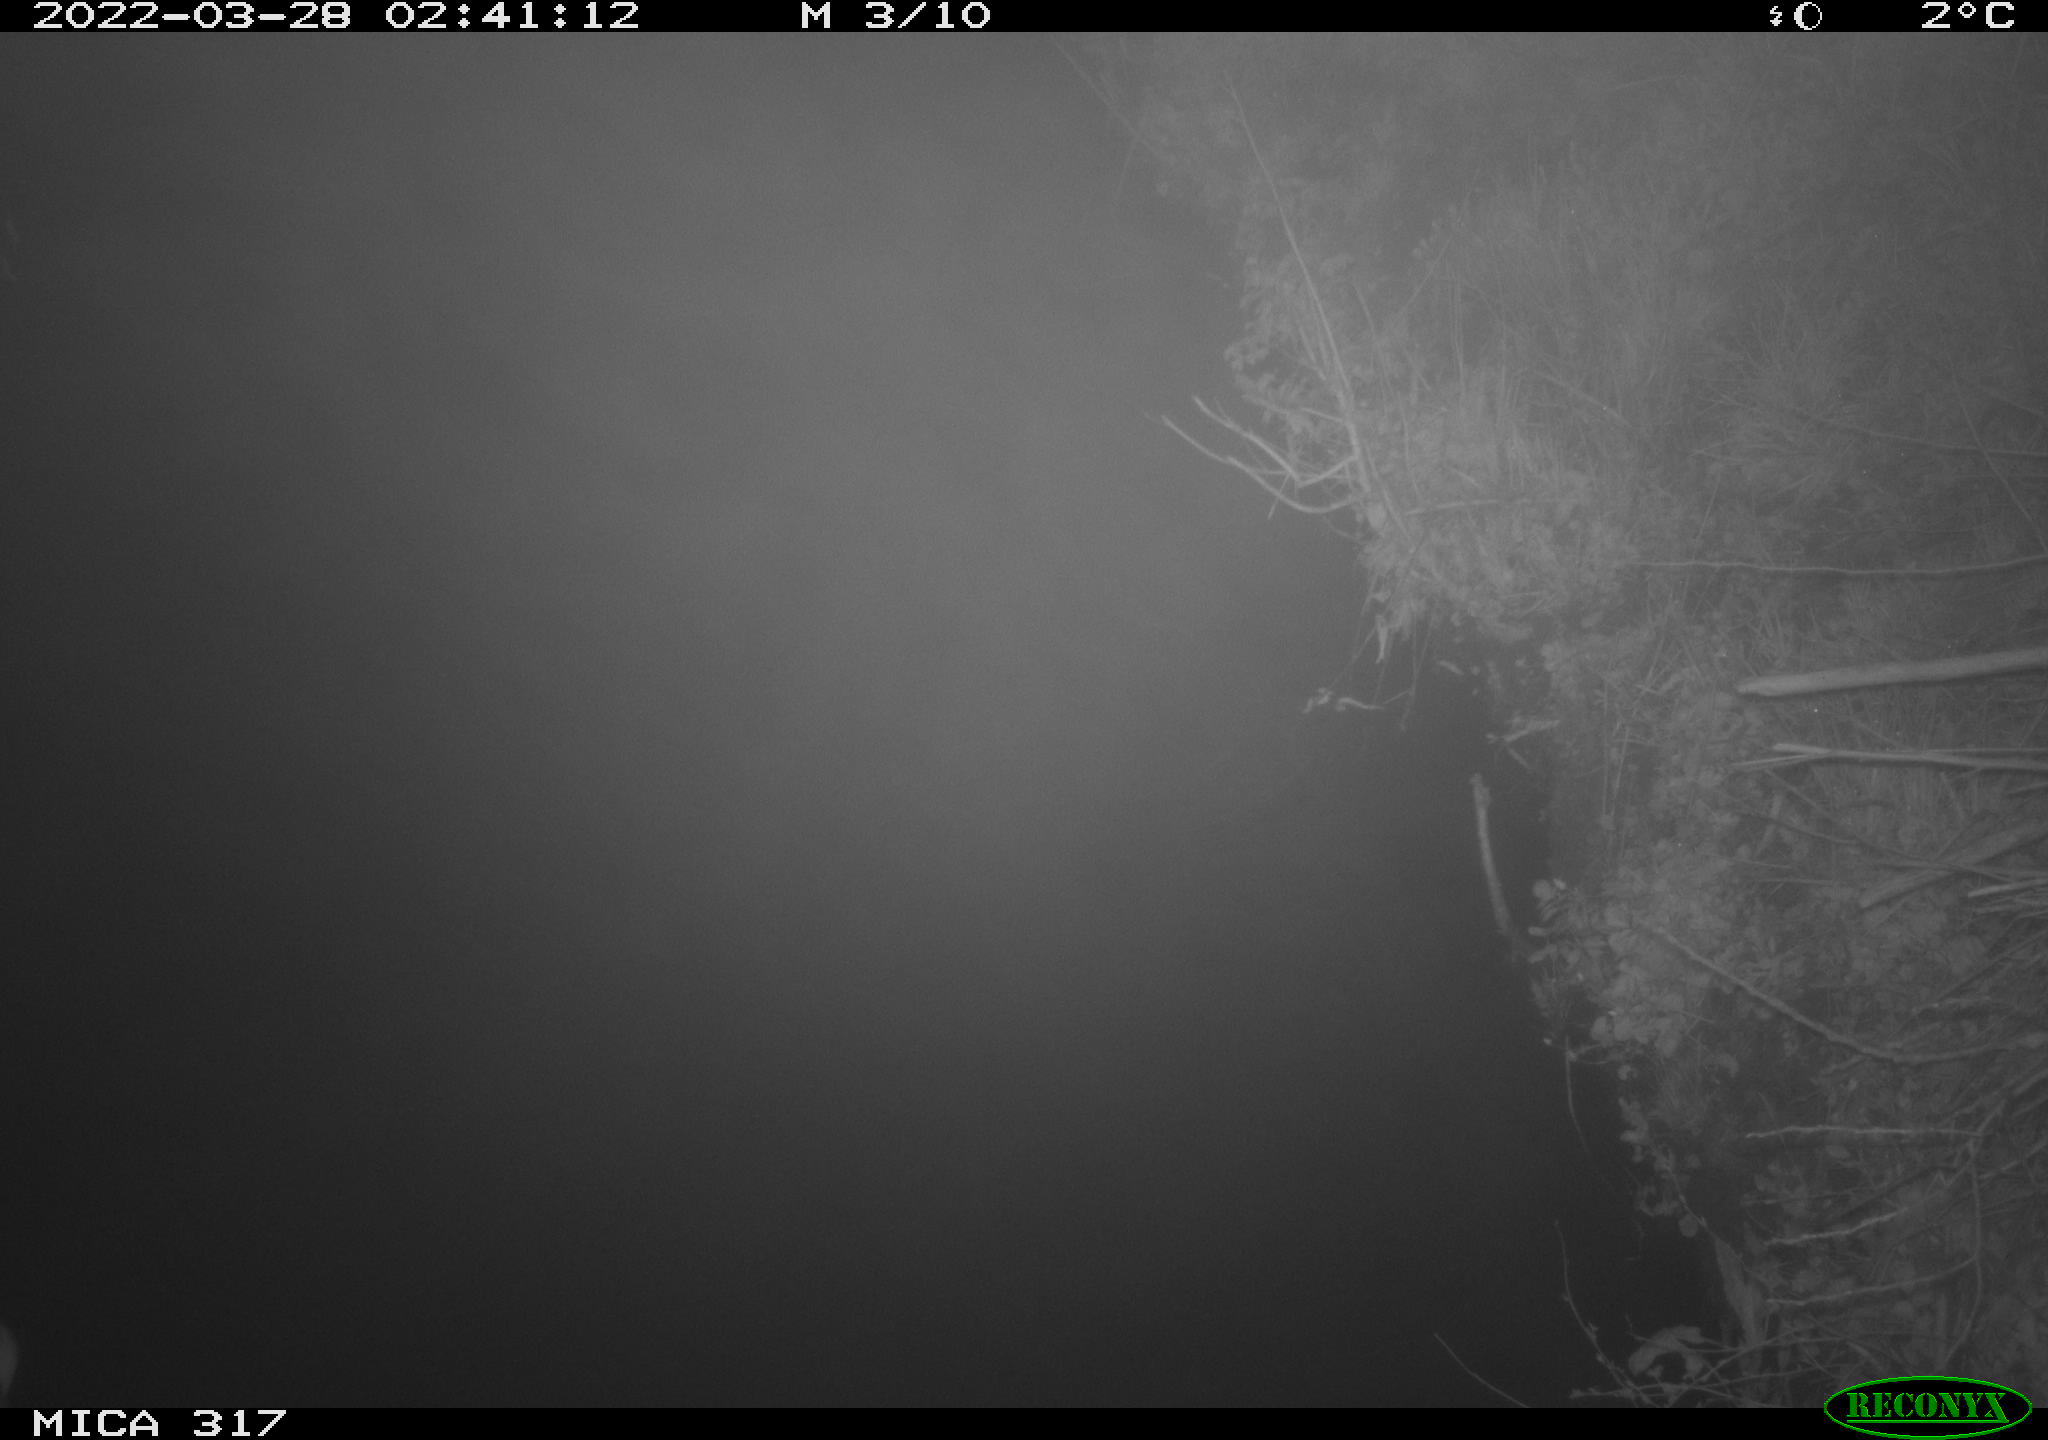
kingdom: Animalia
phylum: Chordata
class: Aves
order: Anseriformes
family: Anatidae
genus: Anas
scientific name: Anas platyrhynchos
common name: Mallard
